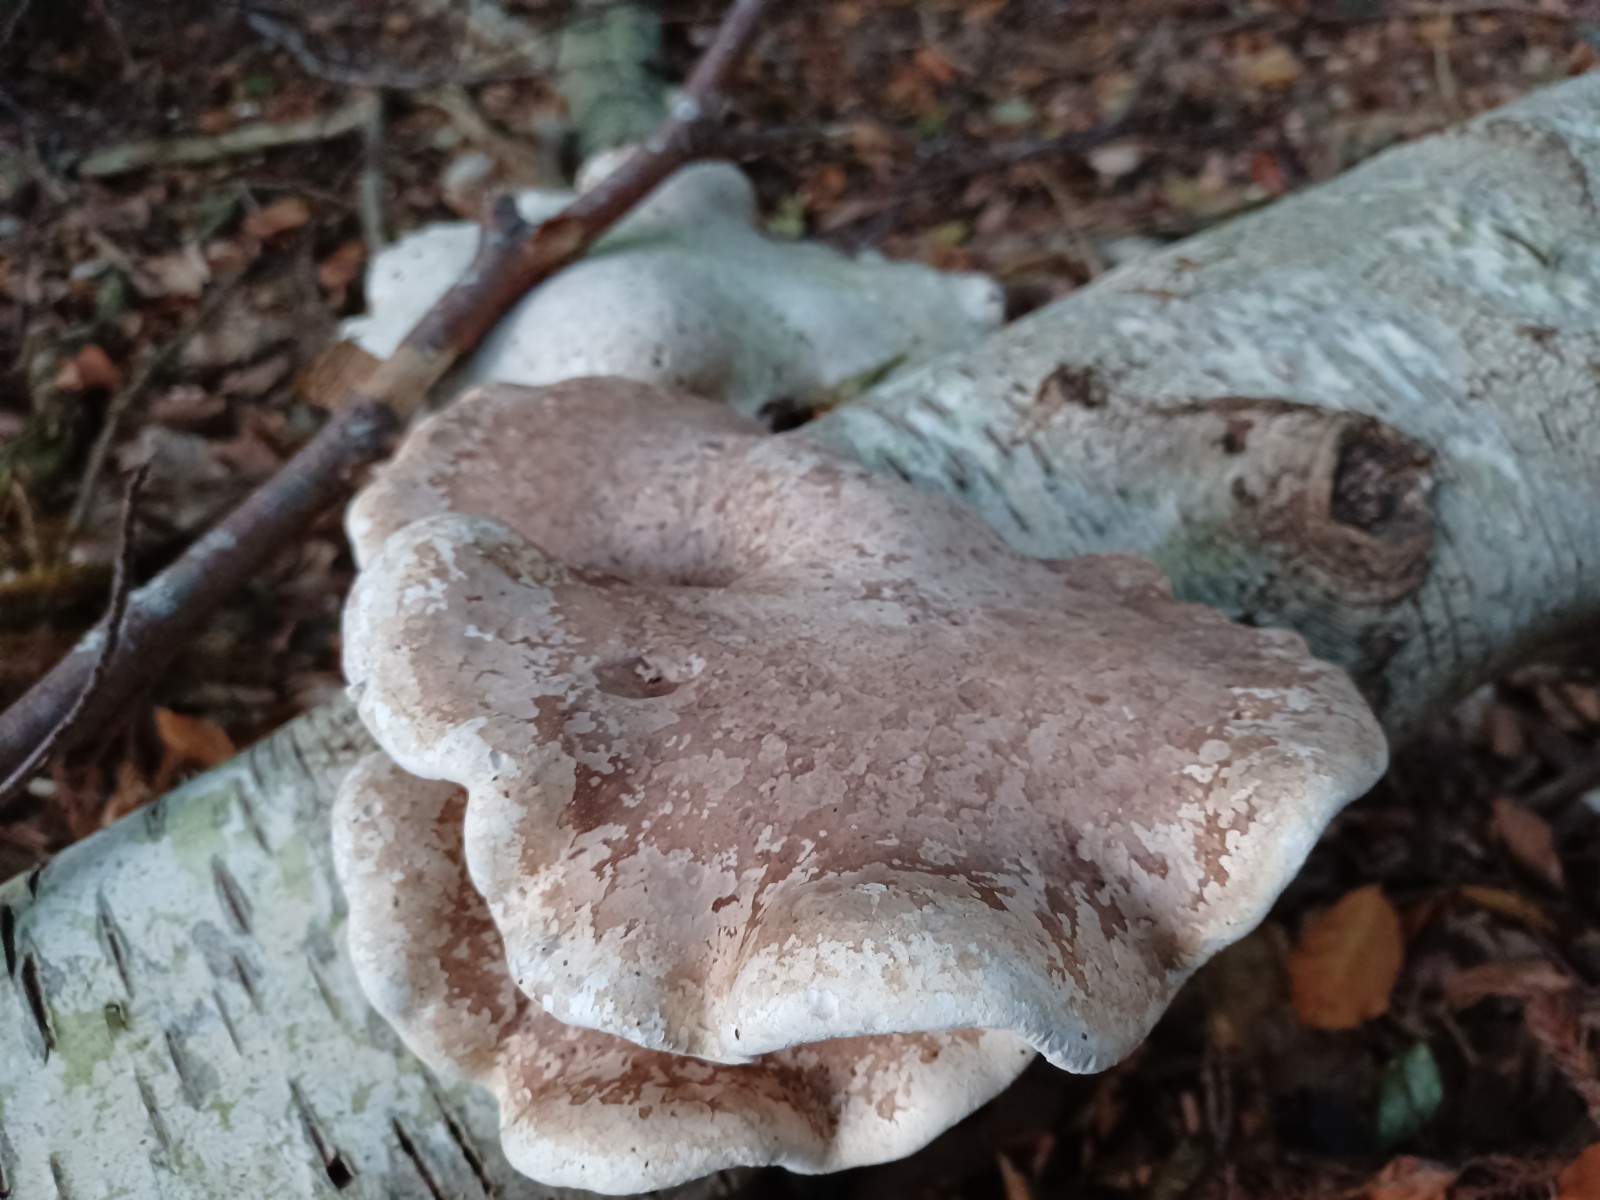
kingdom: Fungi
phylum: Basidiomycota
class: Agaricomycetes
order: Polyporales
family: Fomitopsidaceae
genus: Fomitopsis
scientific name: Fomitopsis betulina
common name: birkeporesvamp
